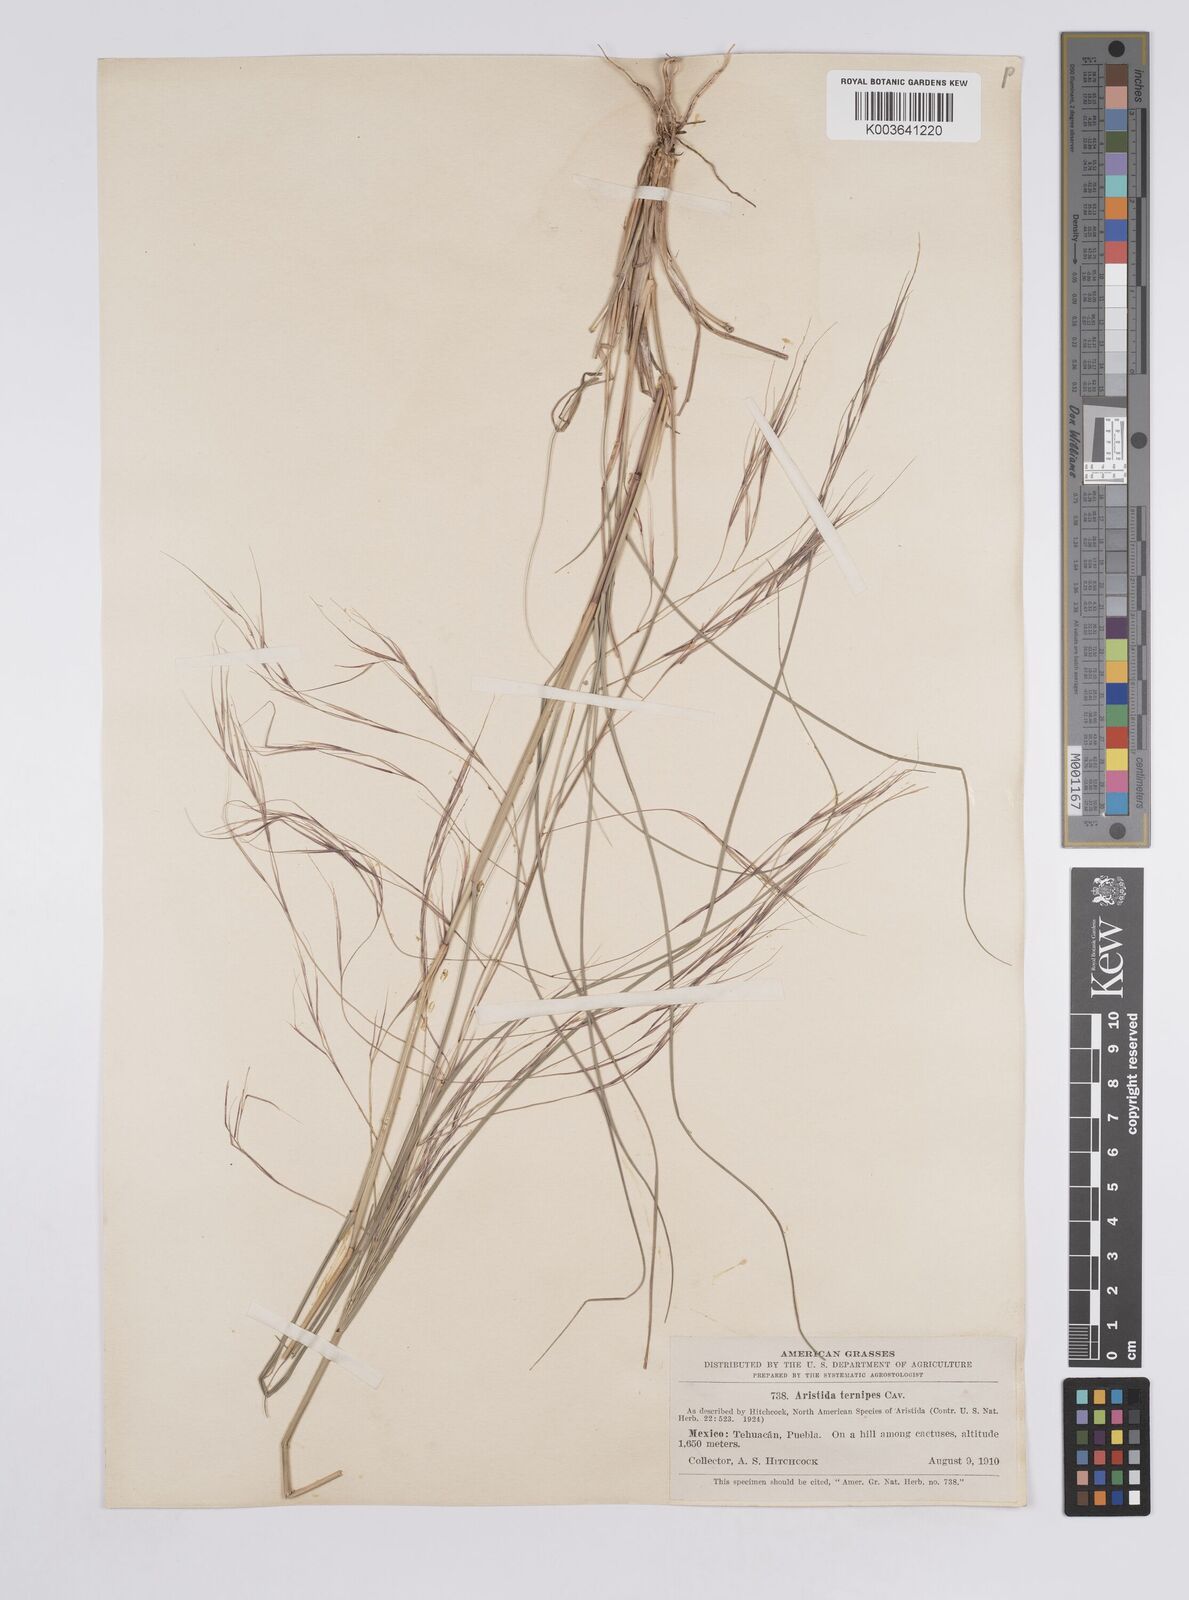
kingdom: Plantae
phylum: Tracheophyta
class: Liliopsida
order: Poales
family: Poaceae
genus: Aristida
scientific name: Aristida
